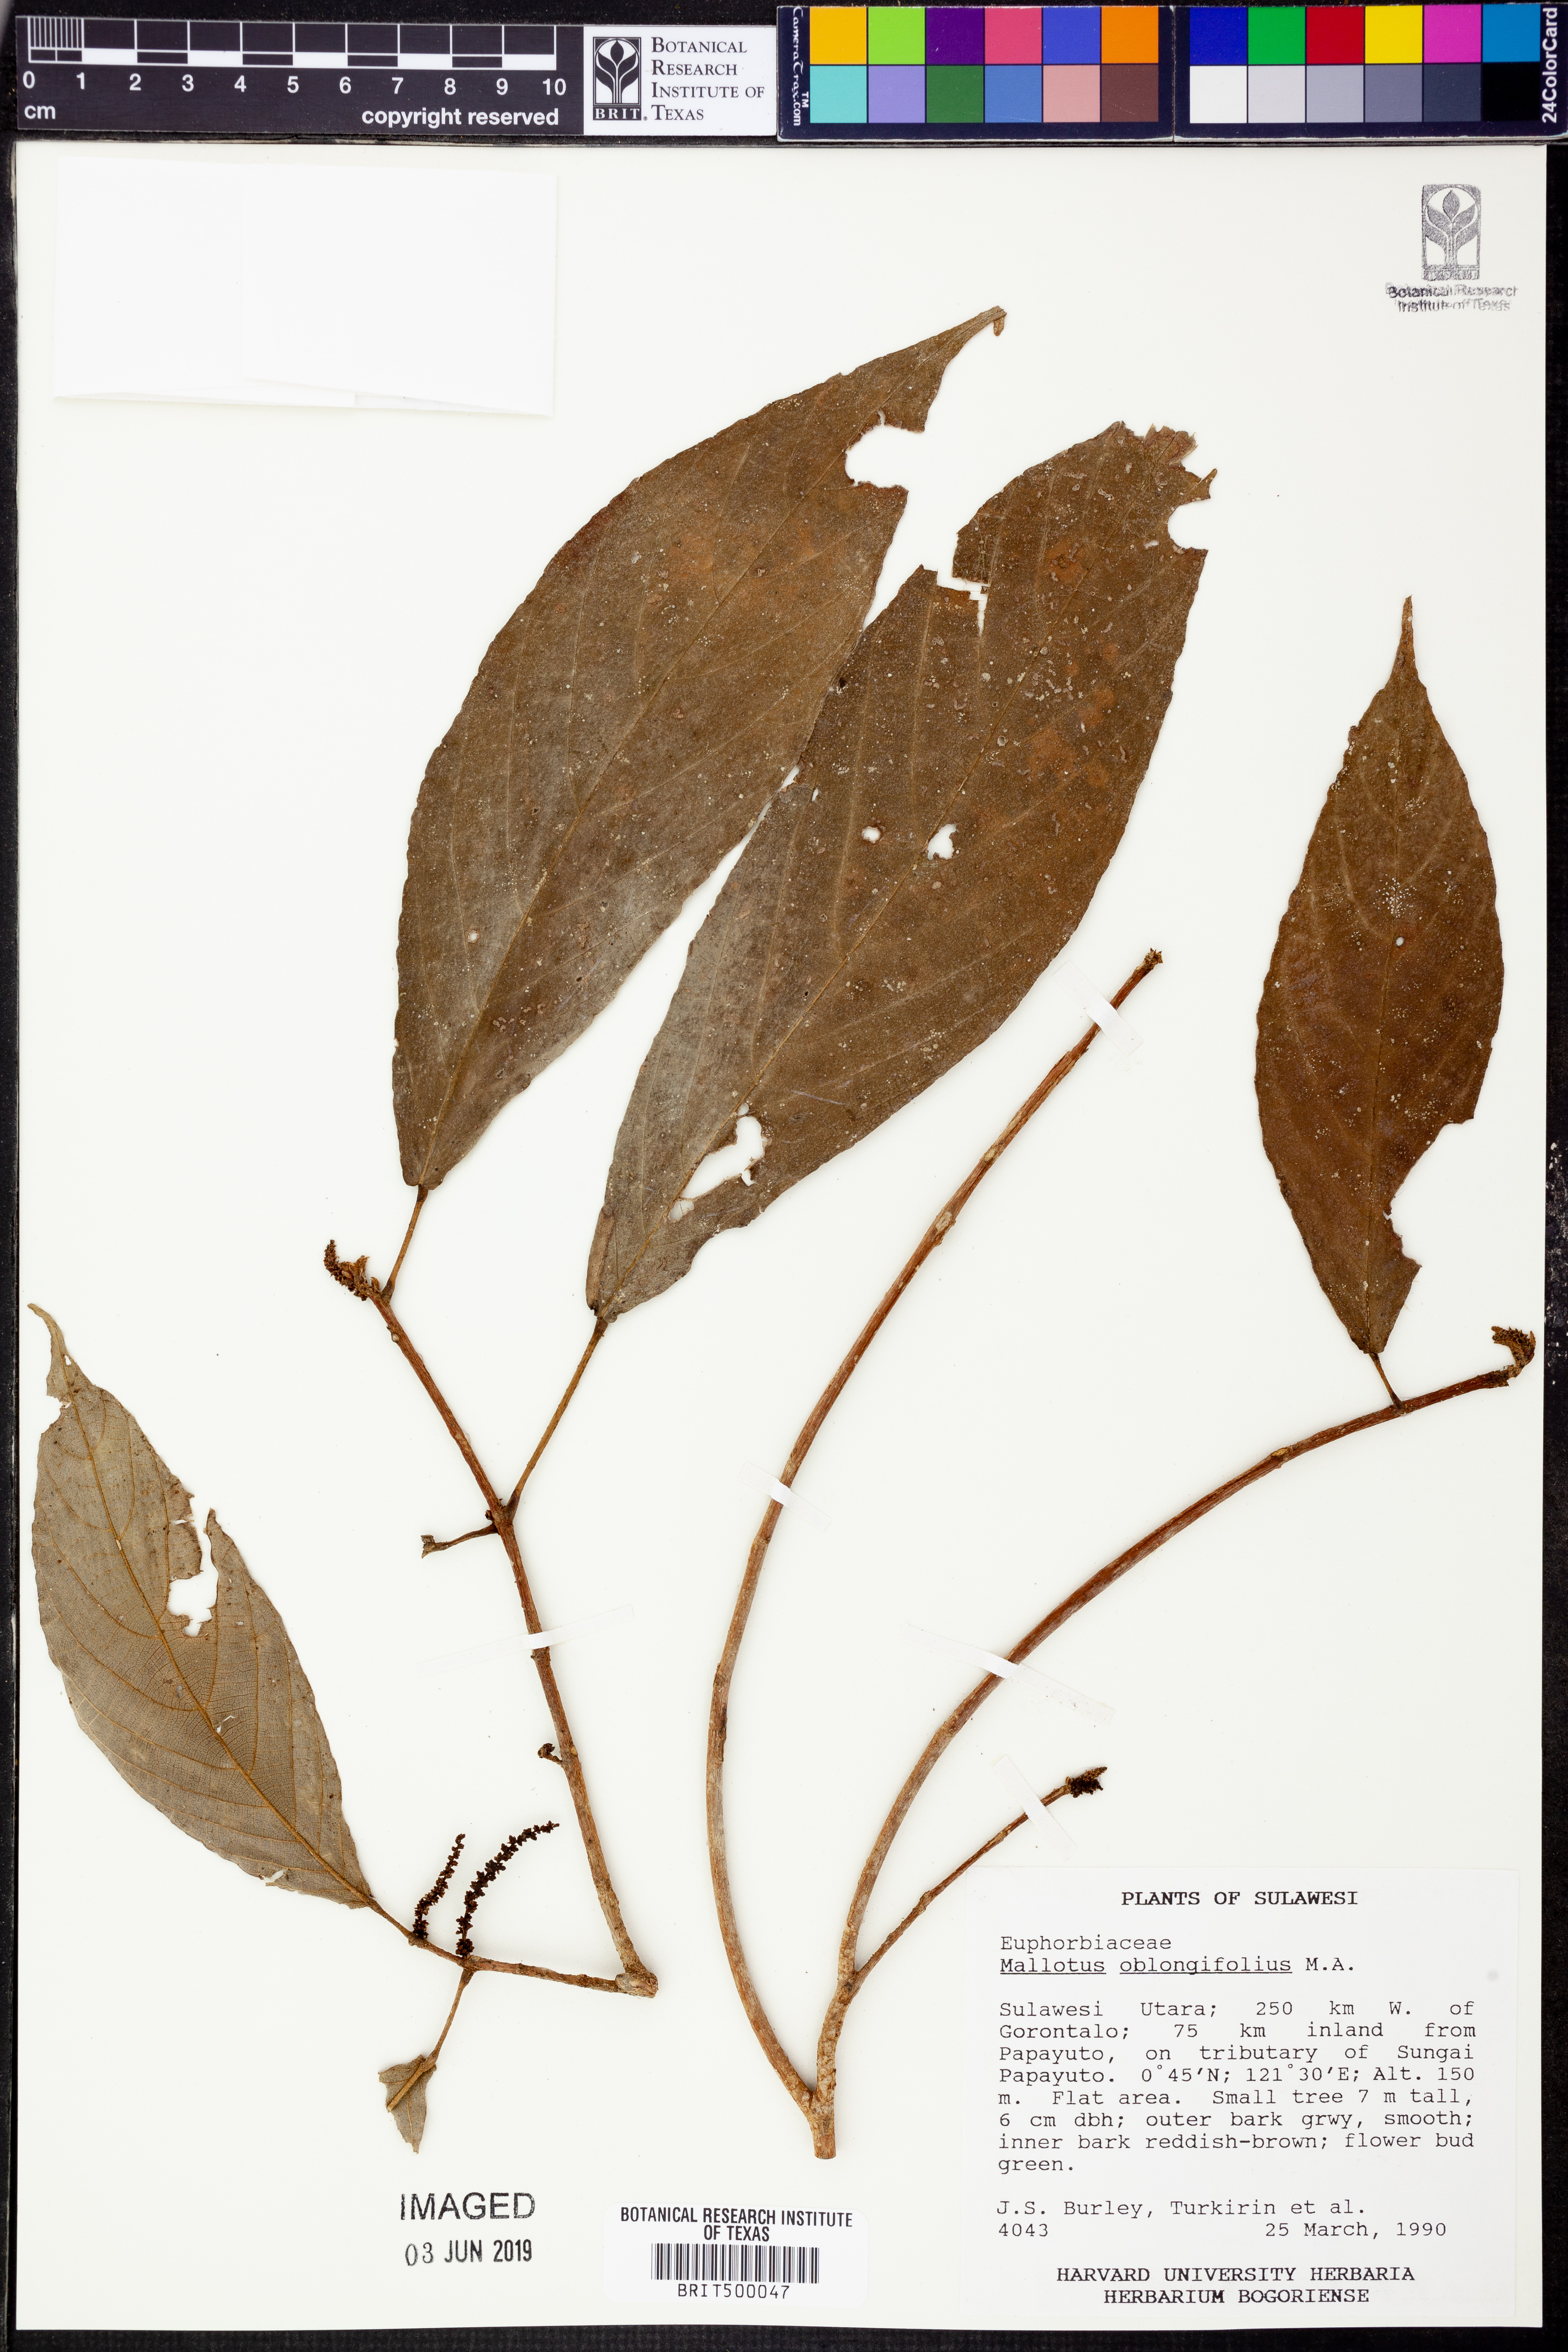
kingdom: Plantae
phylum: Tracheophyta
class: Magnoliopsida
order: Malpighiales
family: Euphorbiaceae
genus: Mallotus
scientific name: Mallotus peltatus
